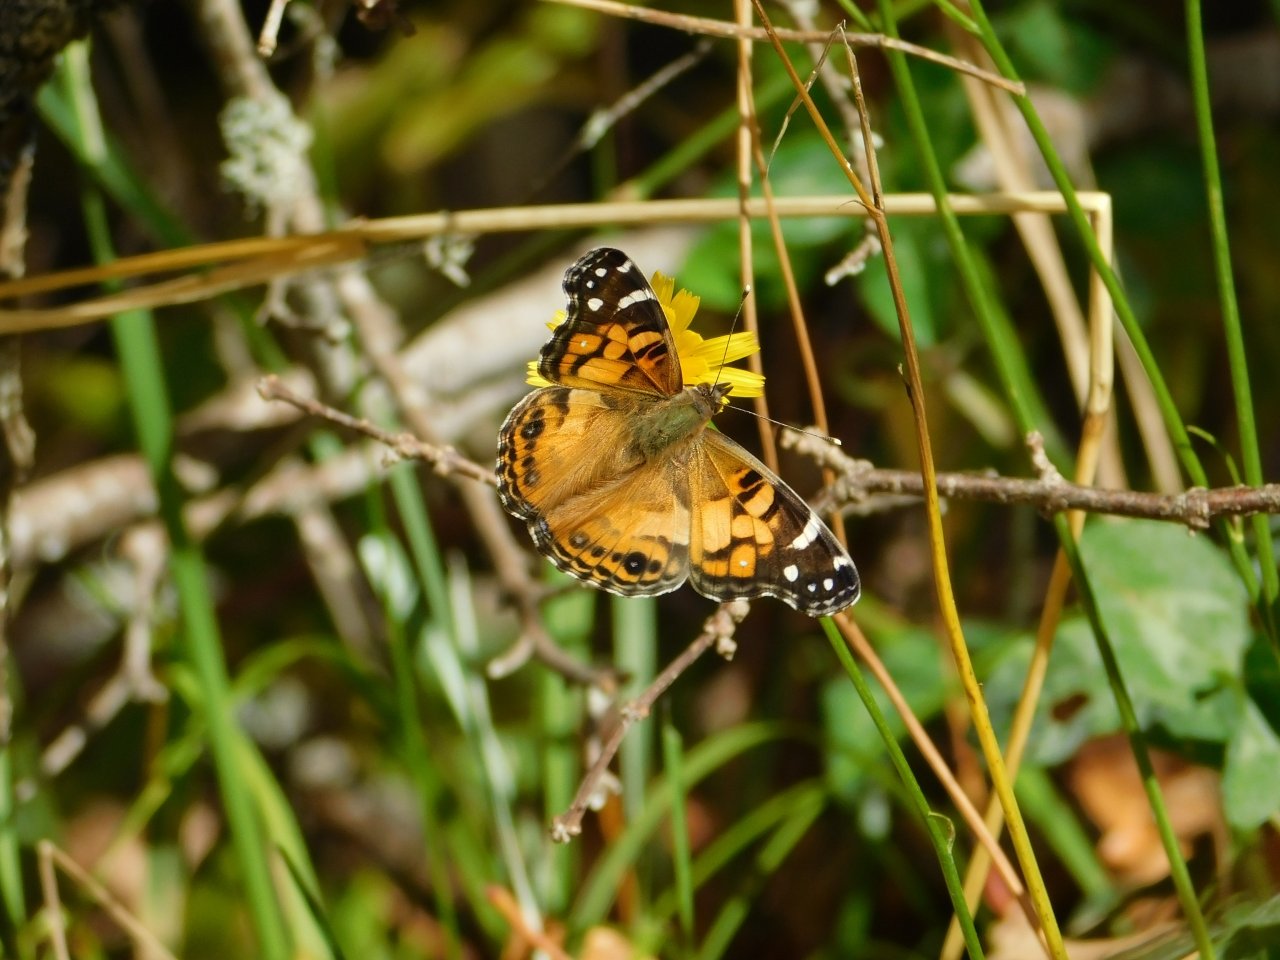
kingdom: Animalia
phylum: Arthropoda
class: Insecta
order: Lepidoptera
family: Nymphalidae
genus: Vanessa
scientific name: Vanessa virginiensis
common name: American Lady
